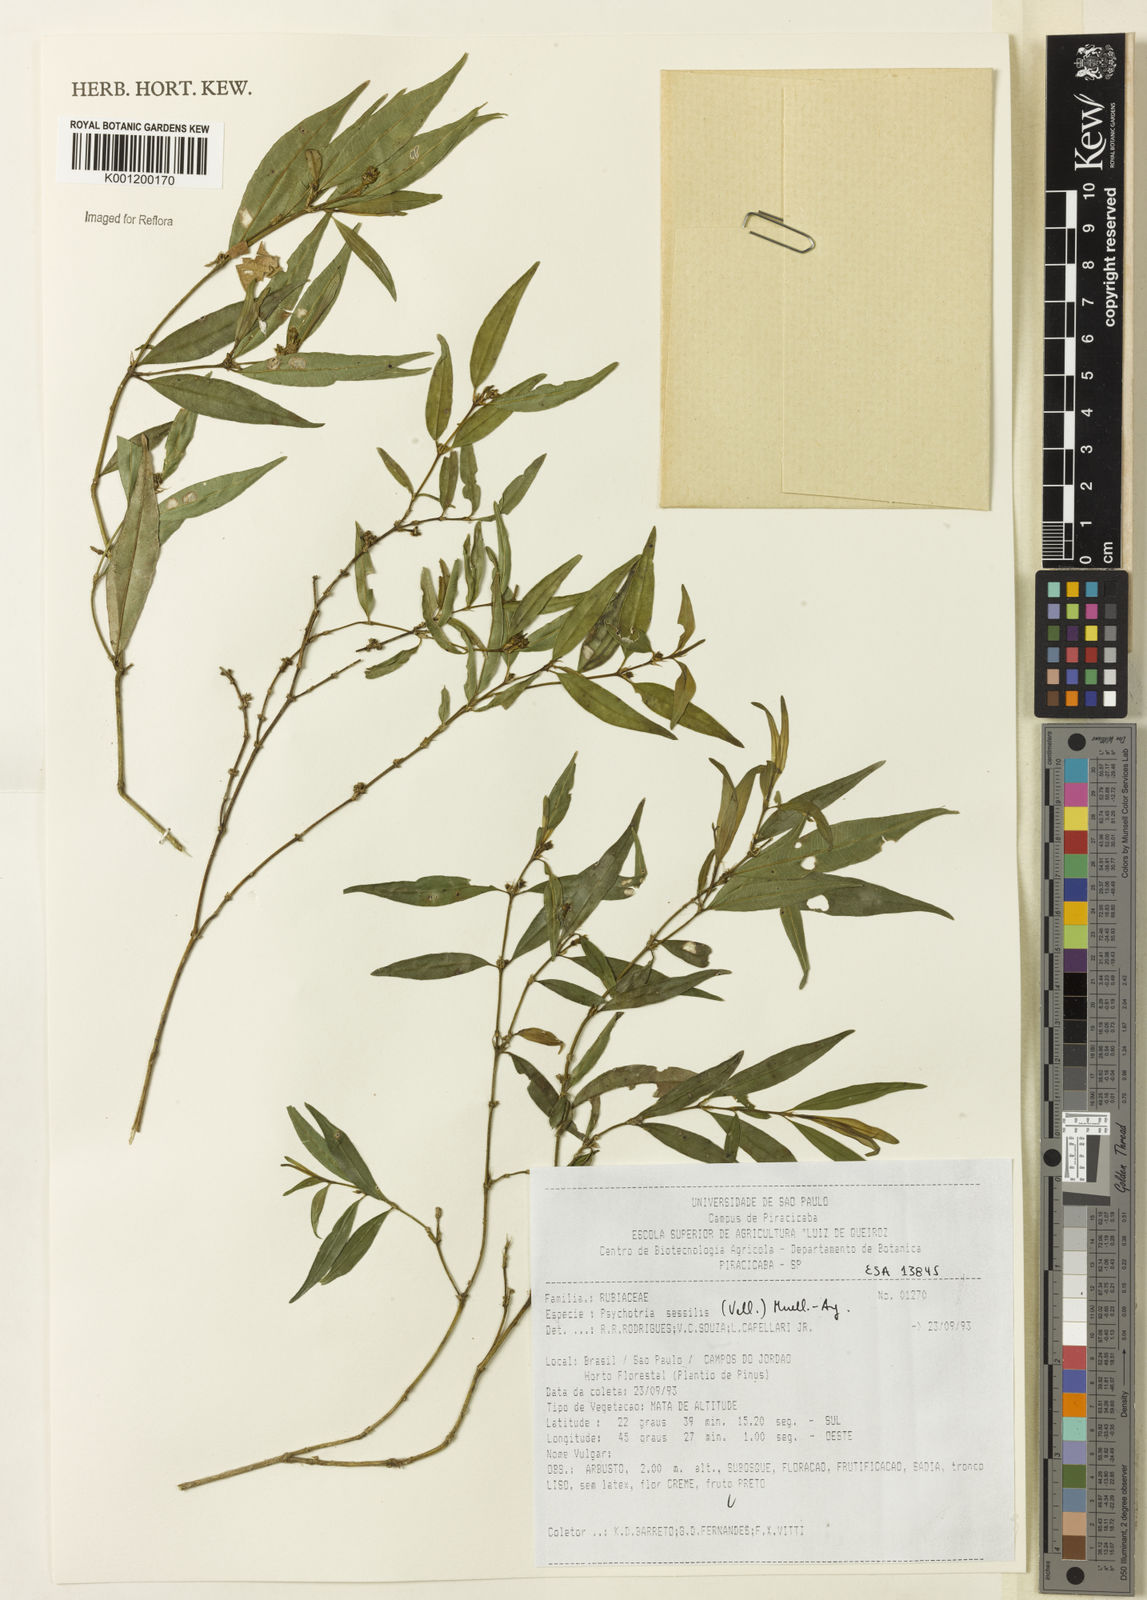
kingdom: Plantae
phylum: Tracheophyta
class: Magnoliopsida
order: Gentianales
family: Rubiaceae
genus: Rudgea
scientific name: Rudgea sessilis
